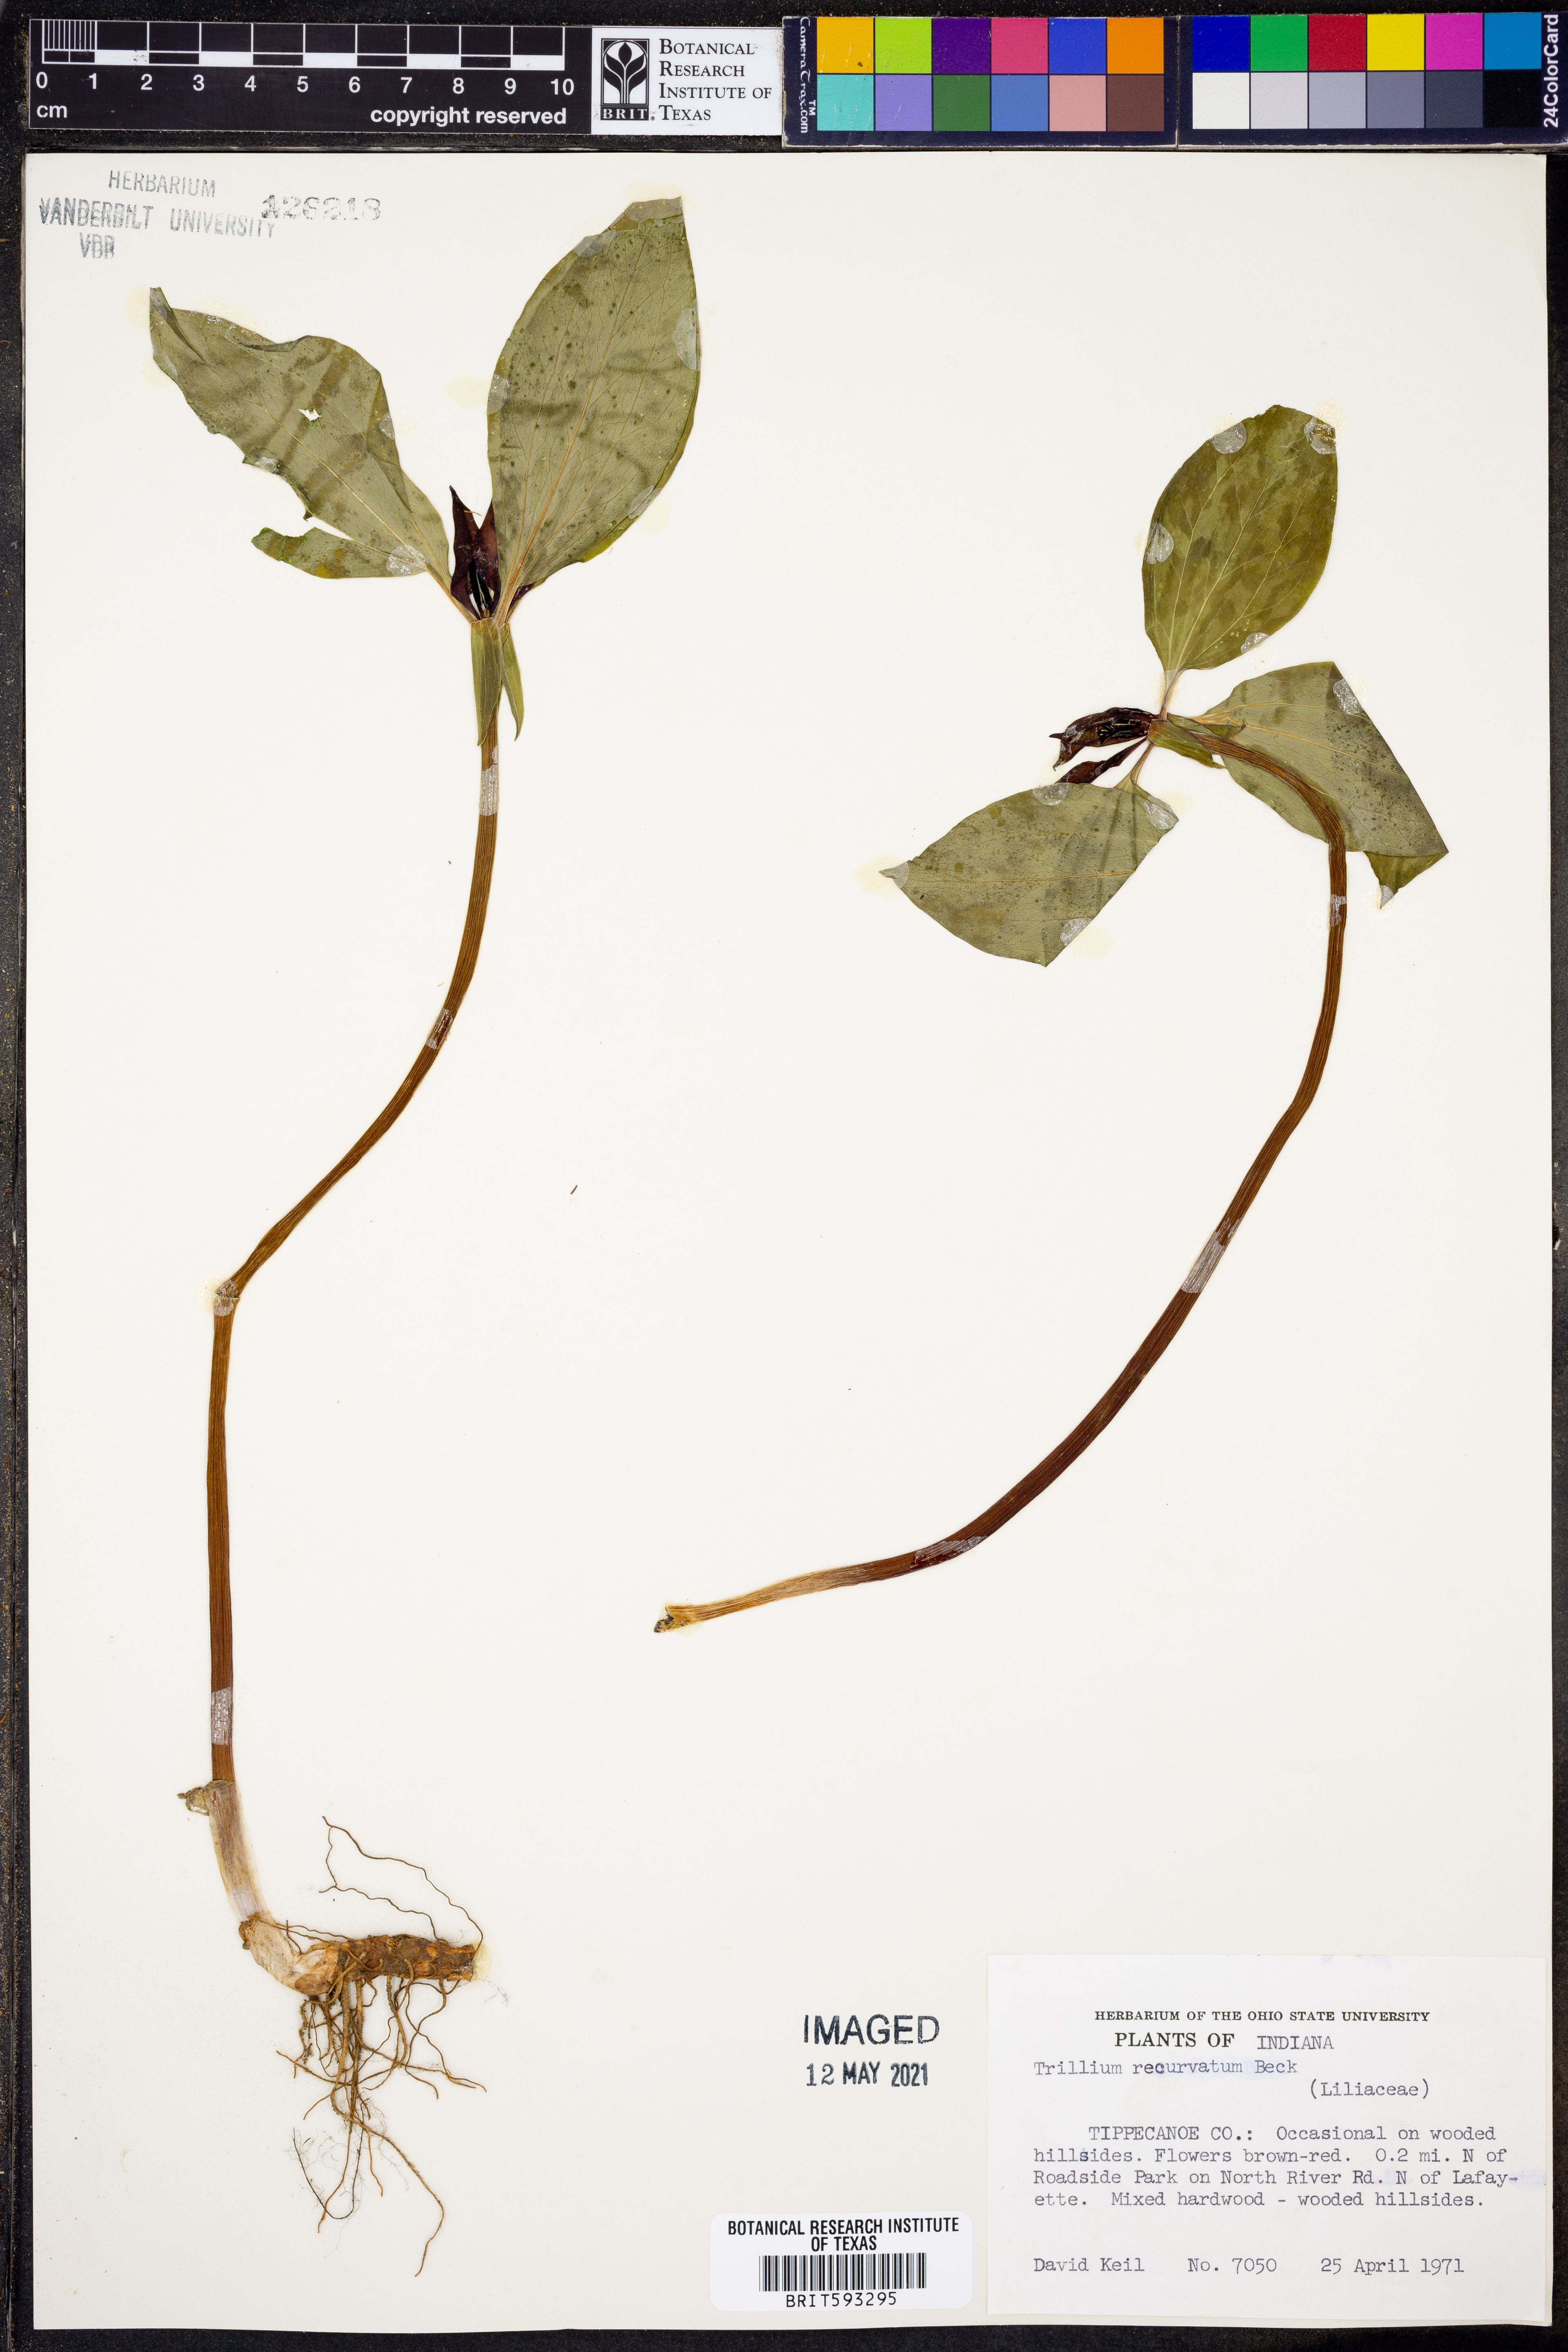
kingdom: Plantae
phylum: Tracheophyta
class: Liliopsida
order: Liliales
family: Melanthiaceae
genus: Trillium
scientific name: Trillium recurvatum
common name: Bloody butcher
